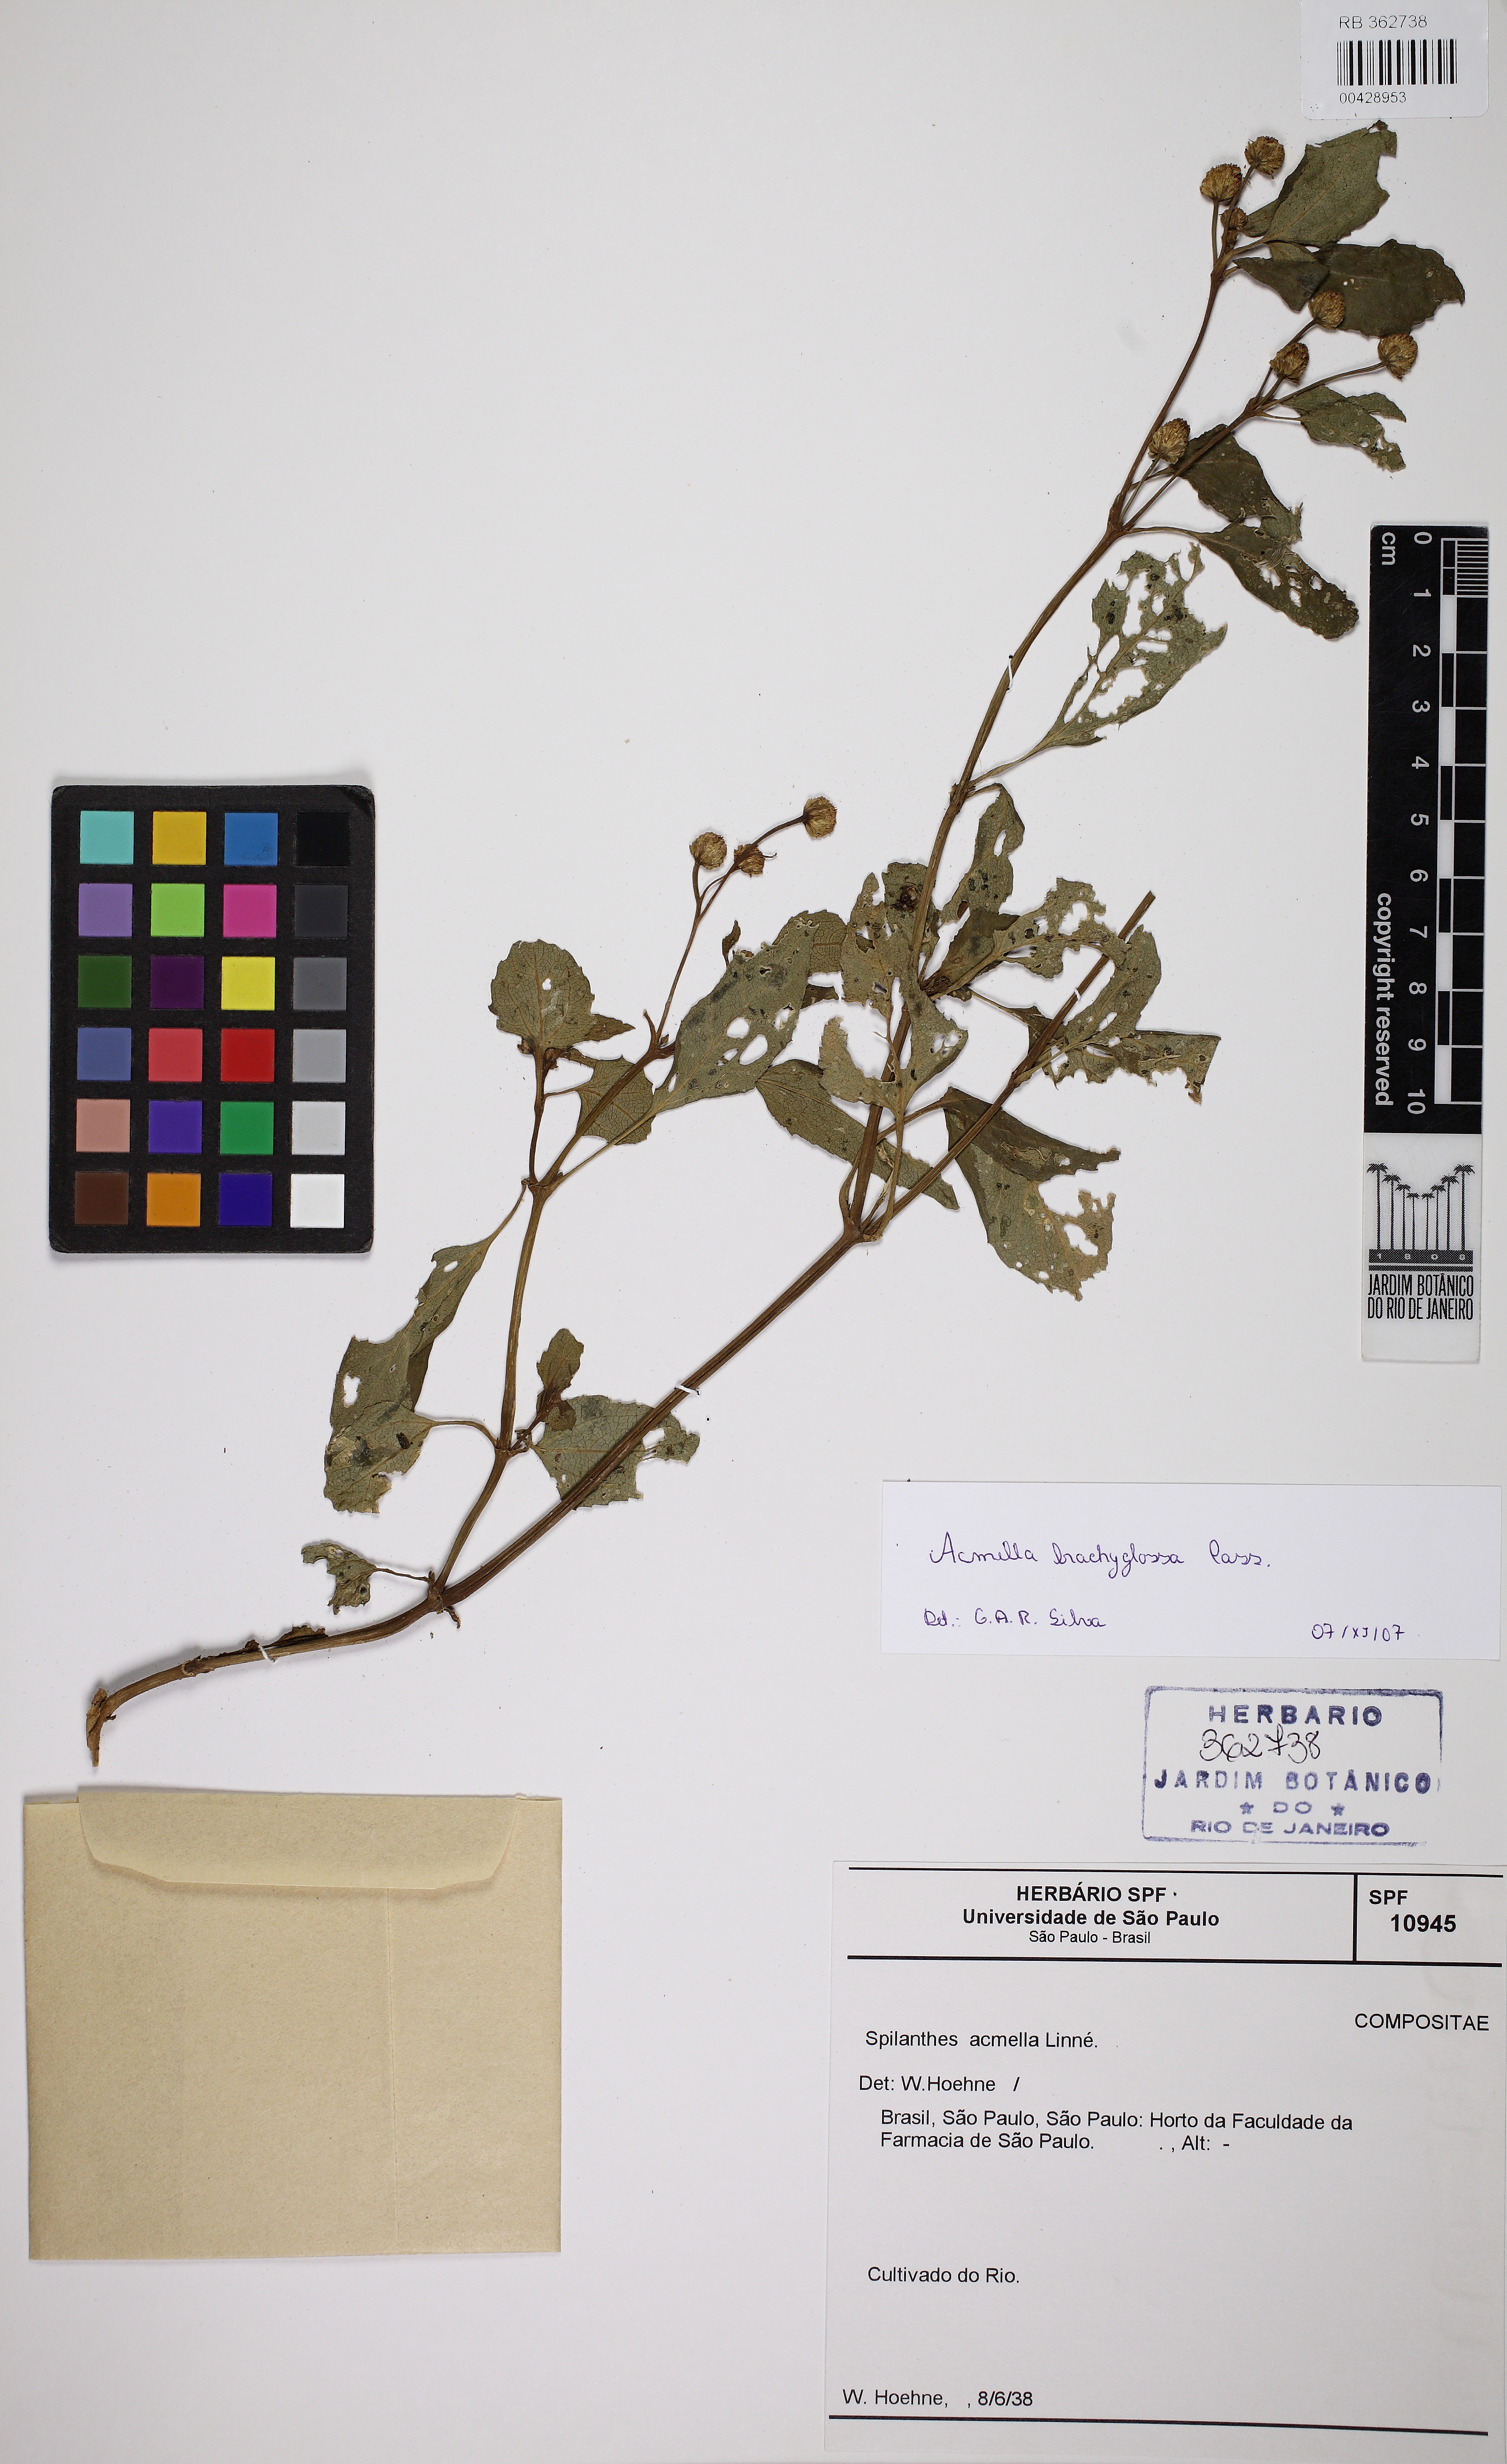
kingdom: Plantae
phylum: Tracheophyta
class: Magnoliopsida
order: Asterales
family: Asteraceae
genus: Acmella
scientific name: Acmella brachyglossa
